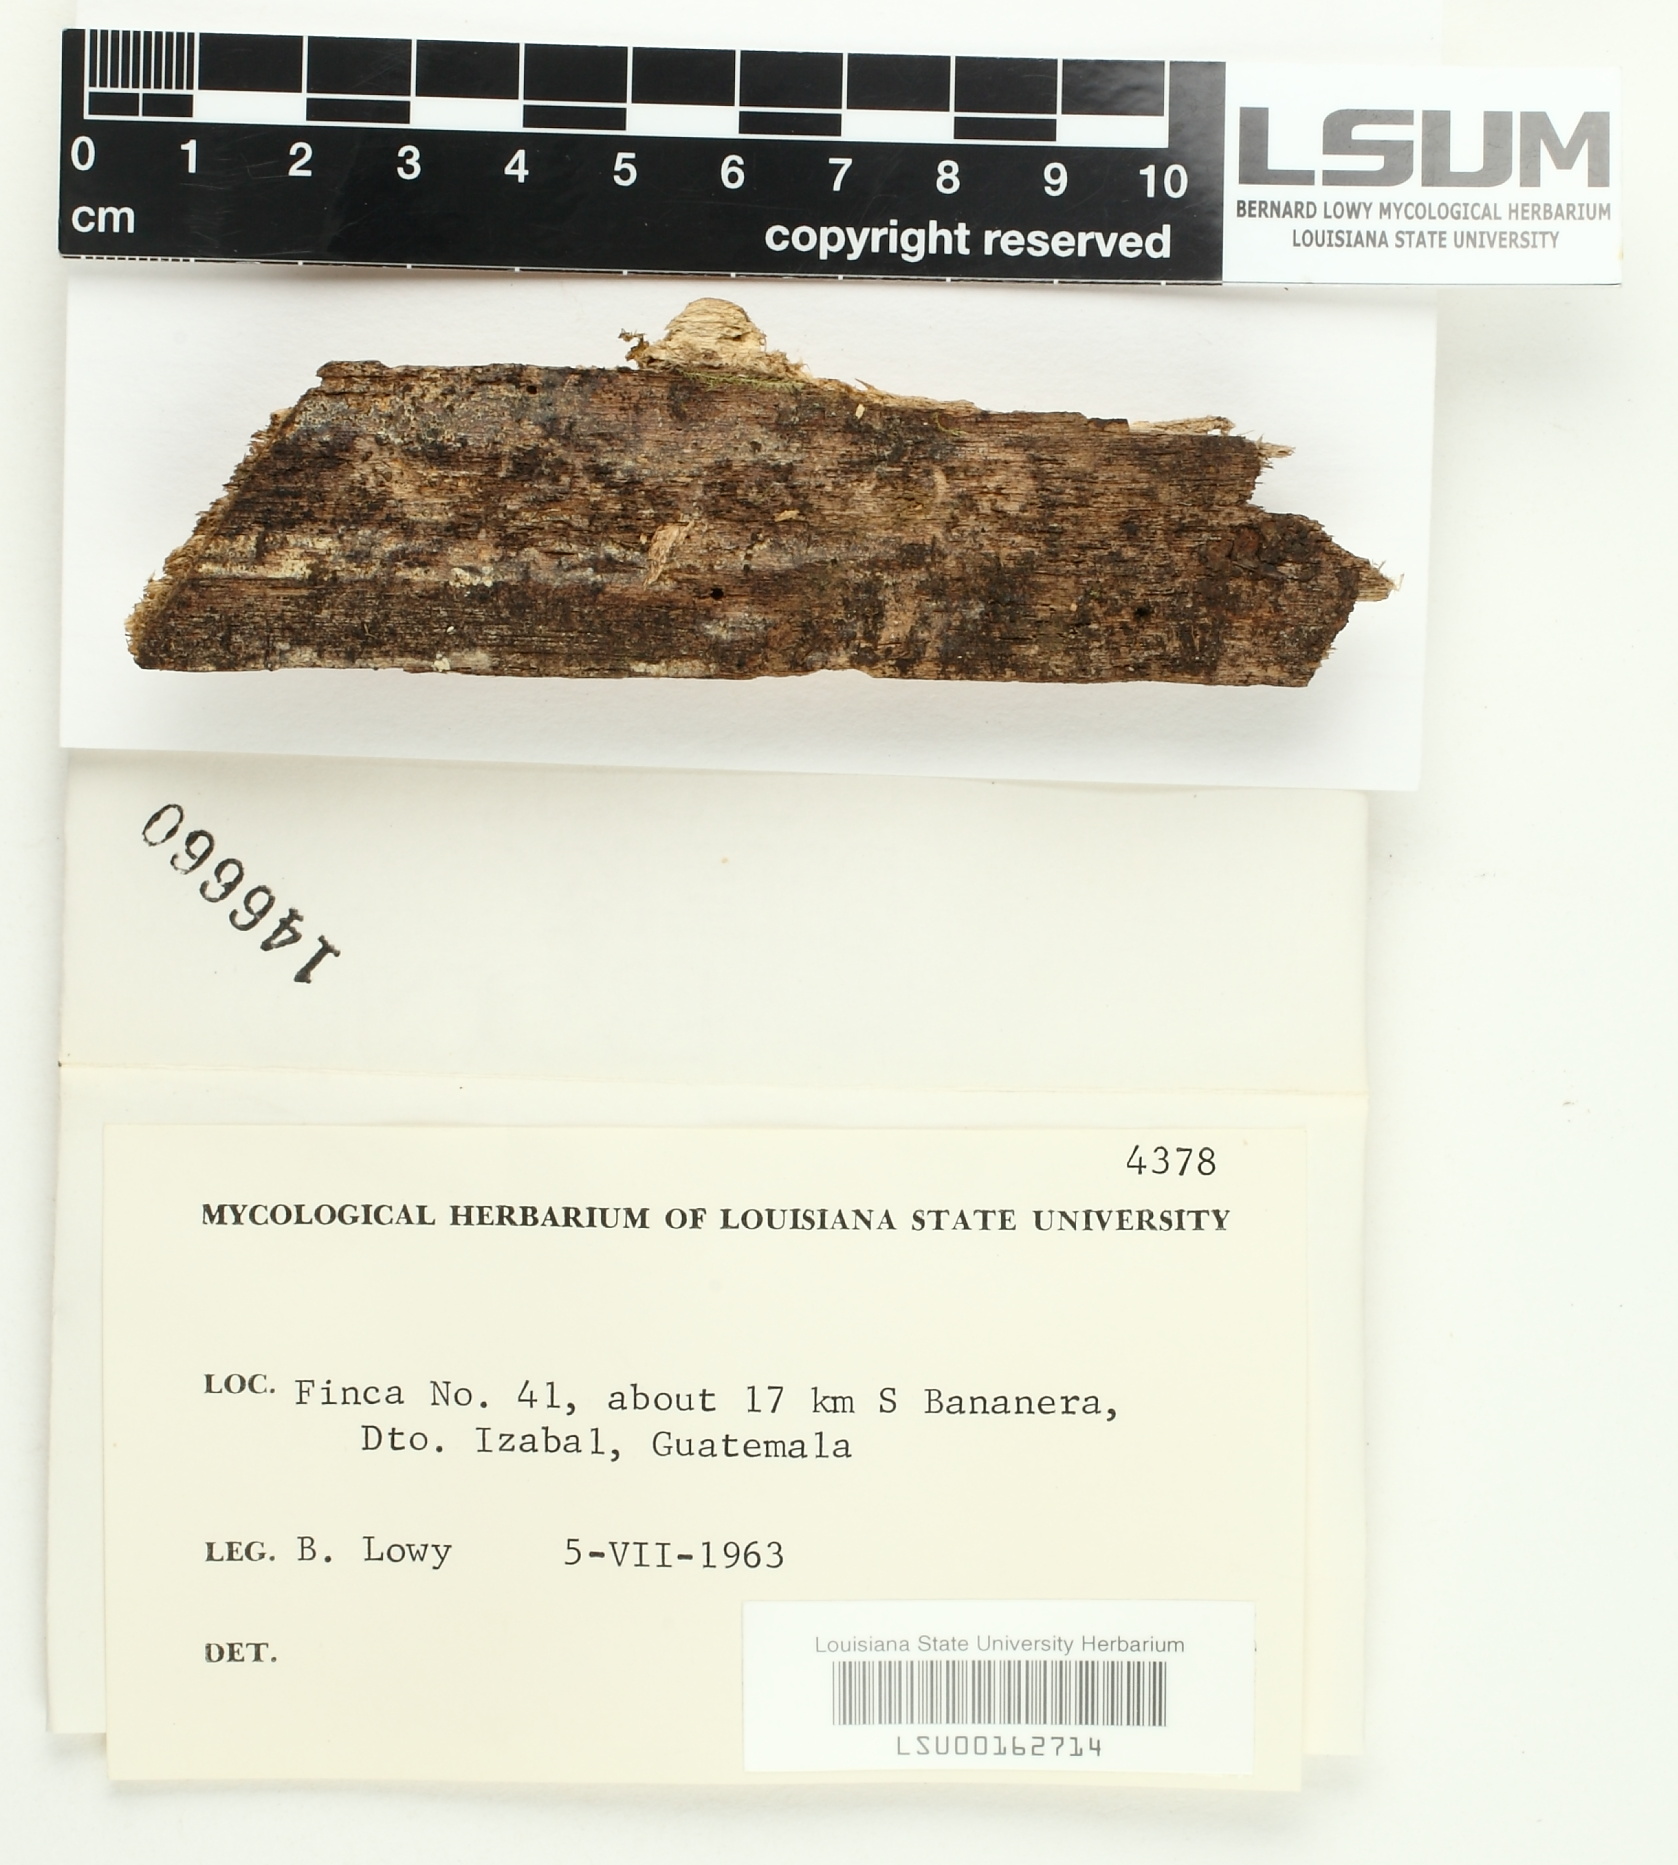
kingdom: Fungi
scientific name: Fungi
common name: Fungi
